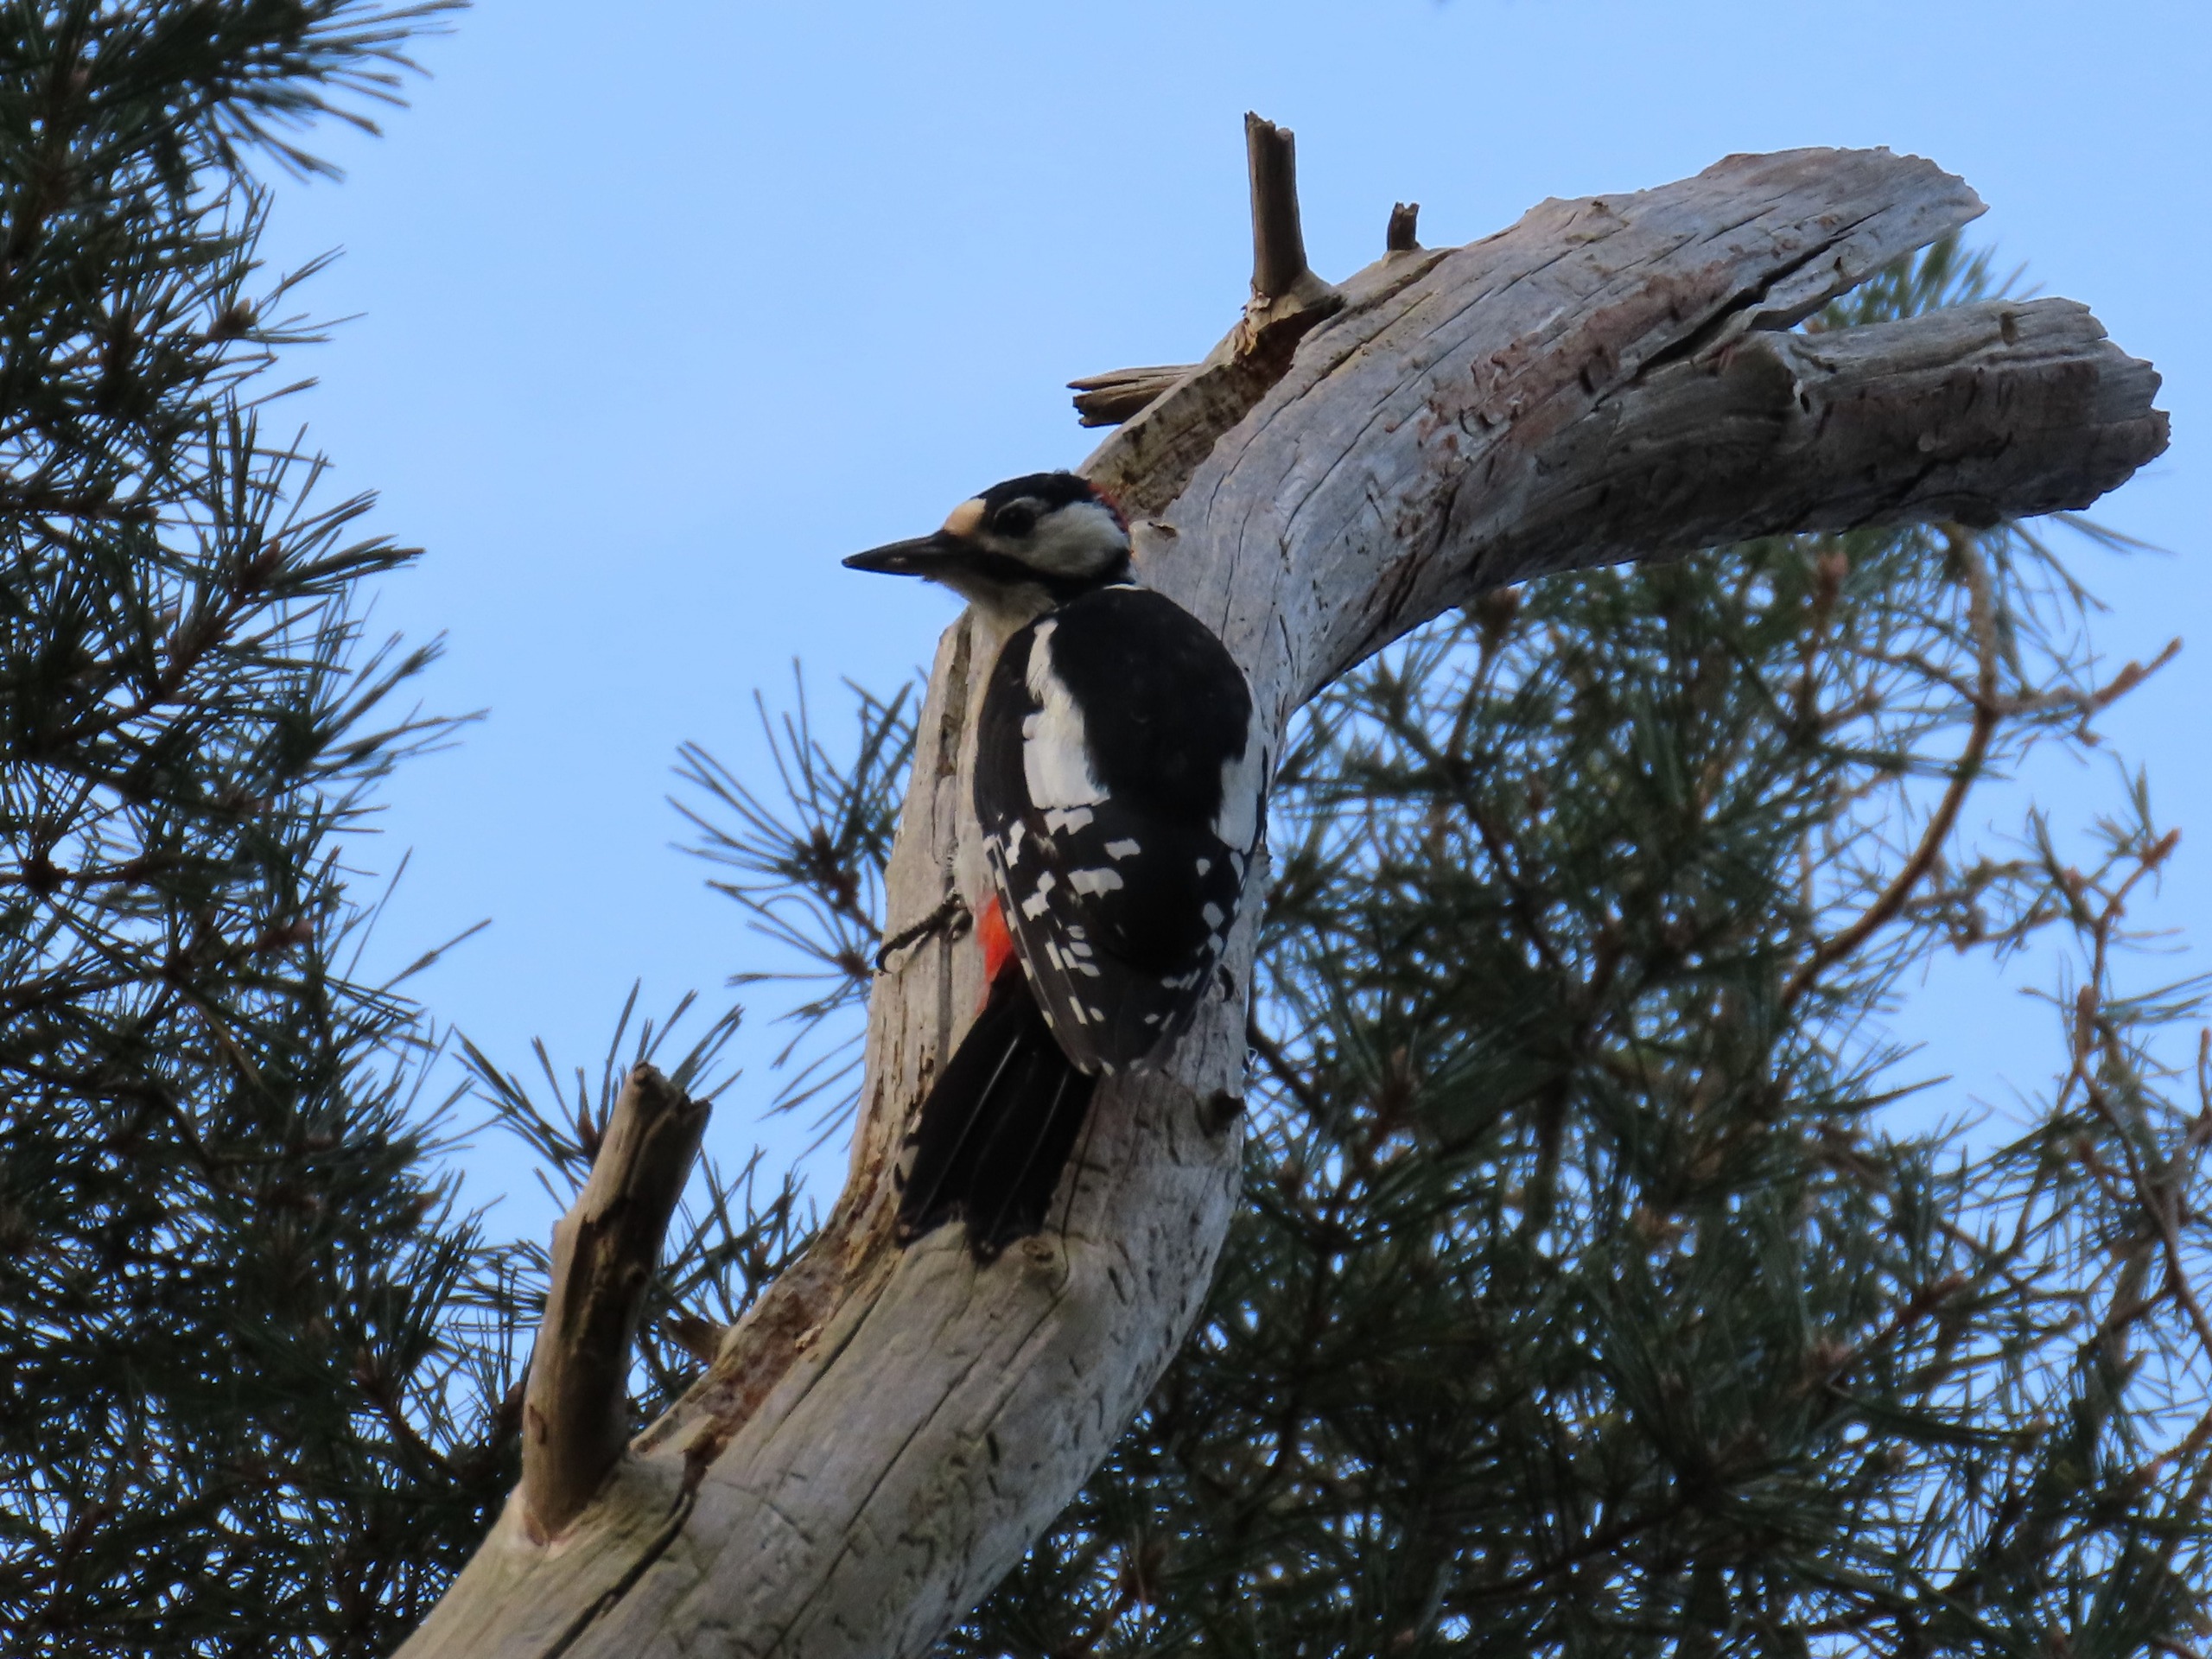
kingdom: Animalia
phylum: Chordata
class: Aves
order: Piciformes
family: Picidae
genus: Dendrocopos
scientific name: Dendrocopos major
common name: Stor flagspætte
